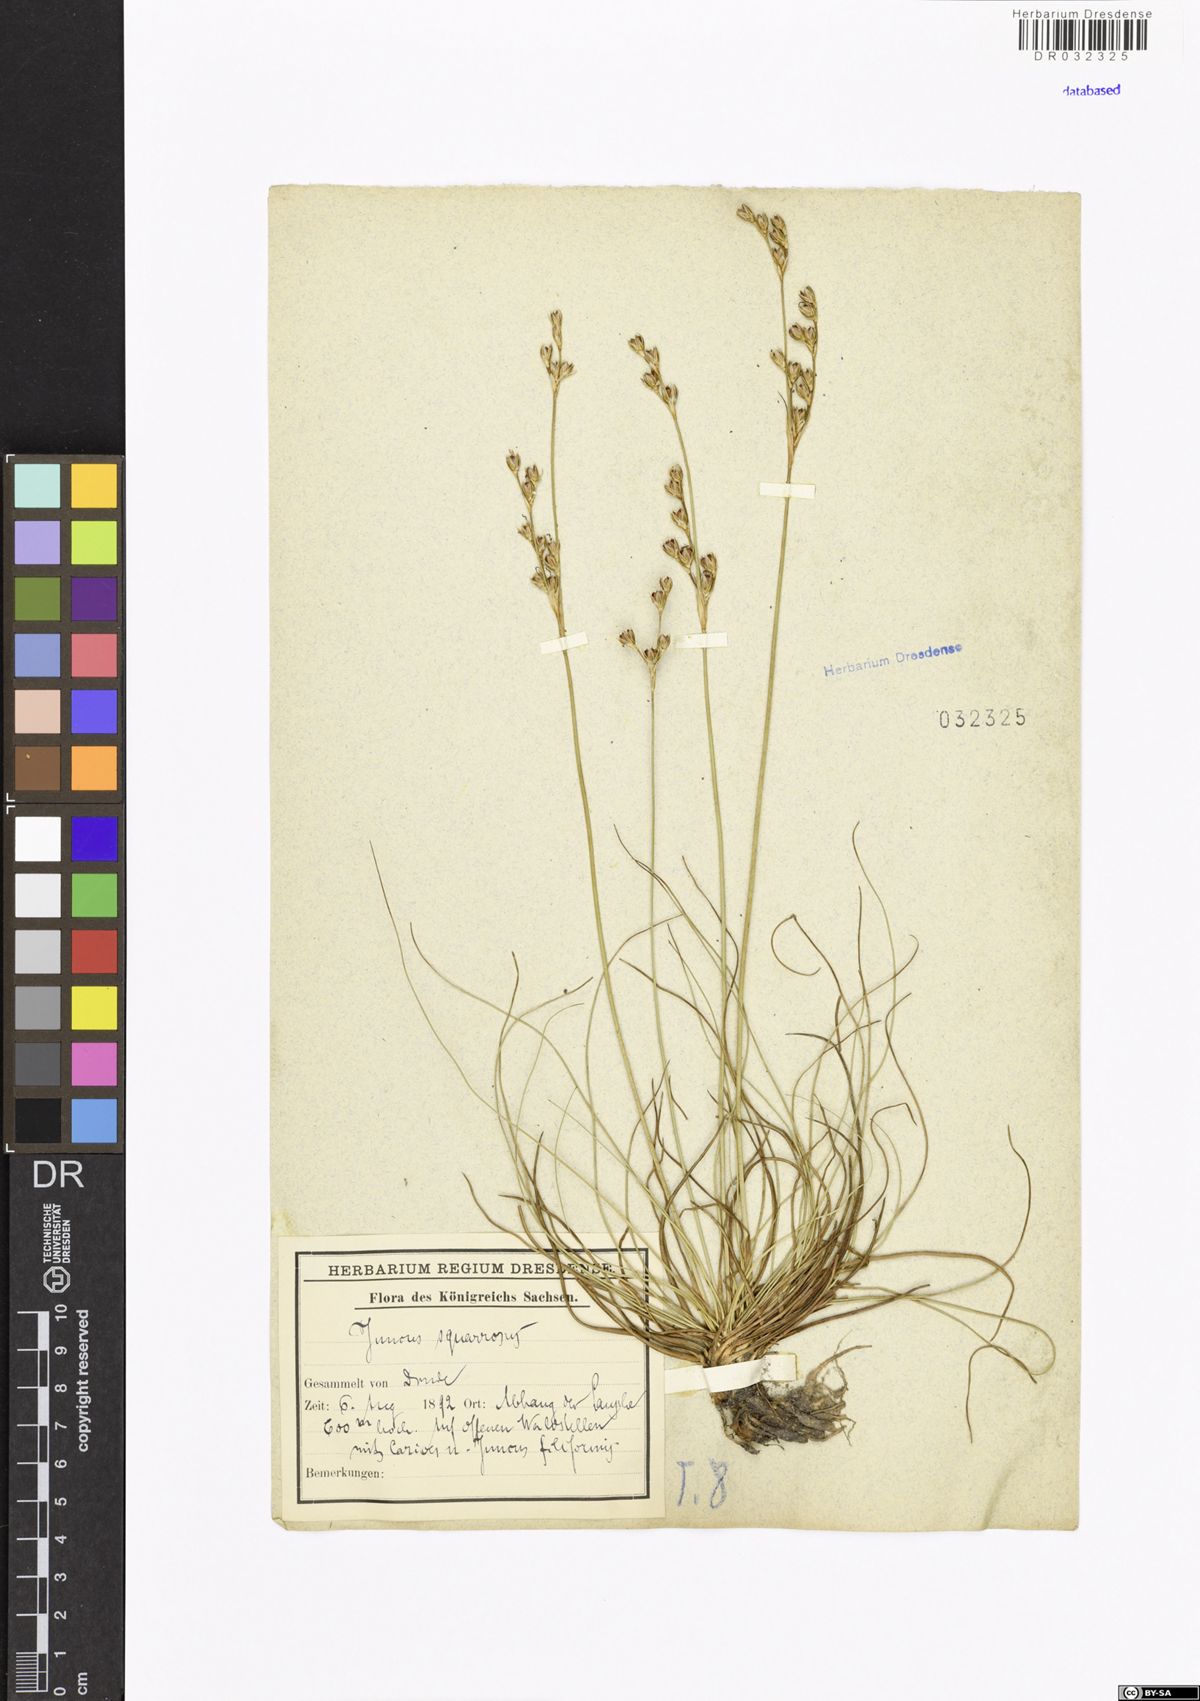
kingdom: Plantae
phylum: Tracheophyta
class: Liliopsida
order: Poales
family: Juncaceae
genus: Juncus
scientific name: Juncus compressus
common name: Round-fruited rush
